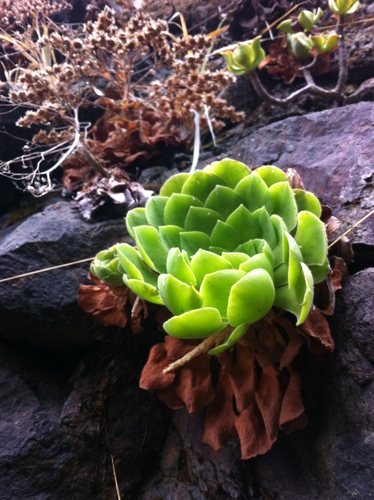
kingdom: Plantae
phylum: Tracheophyta
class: Magnoliopsida
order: Saxifragales
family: Crassulaceae
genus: Aeonium
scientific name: Aeonium glandulosum
